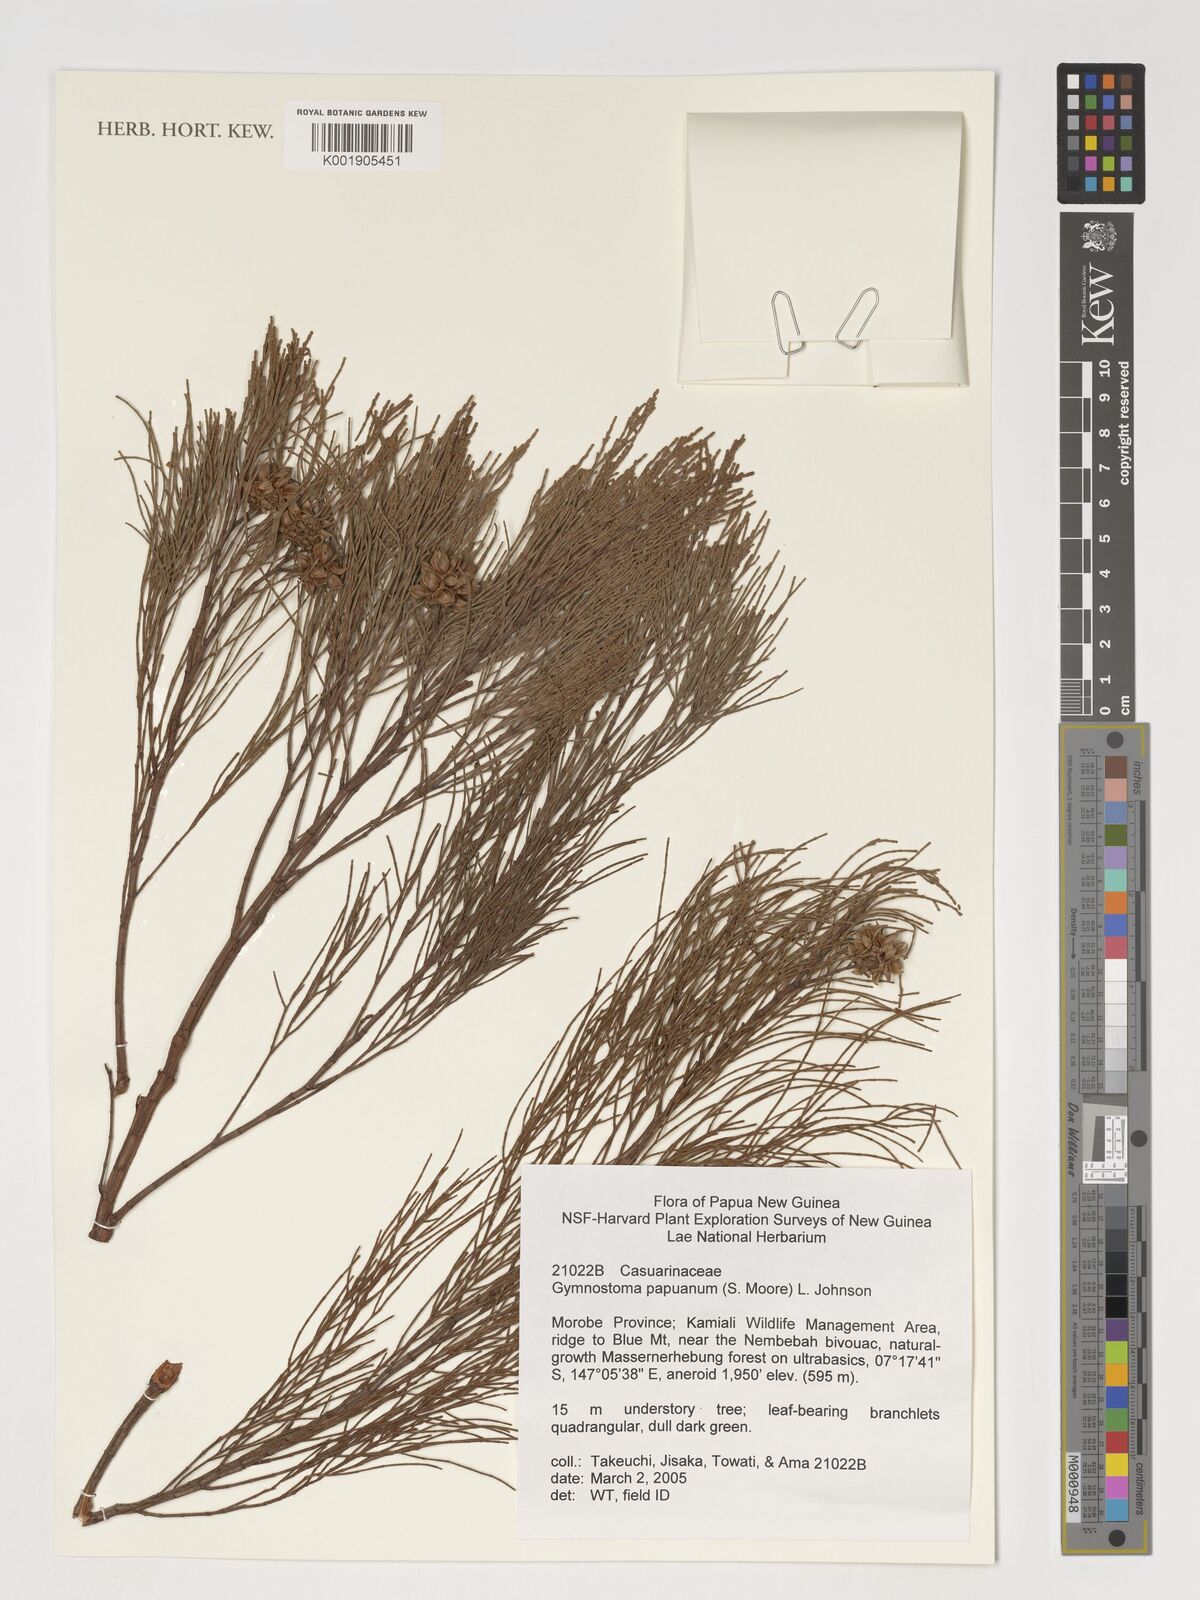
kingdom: Plantae
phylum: Tracheophyta
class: Magnoliopsida
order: Fagales
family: Casuarinaceae
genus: Gymnostoma
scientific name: Gymnostoma papuanum
